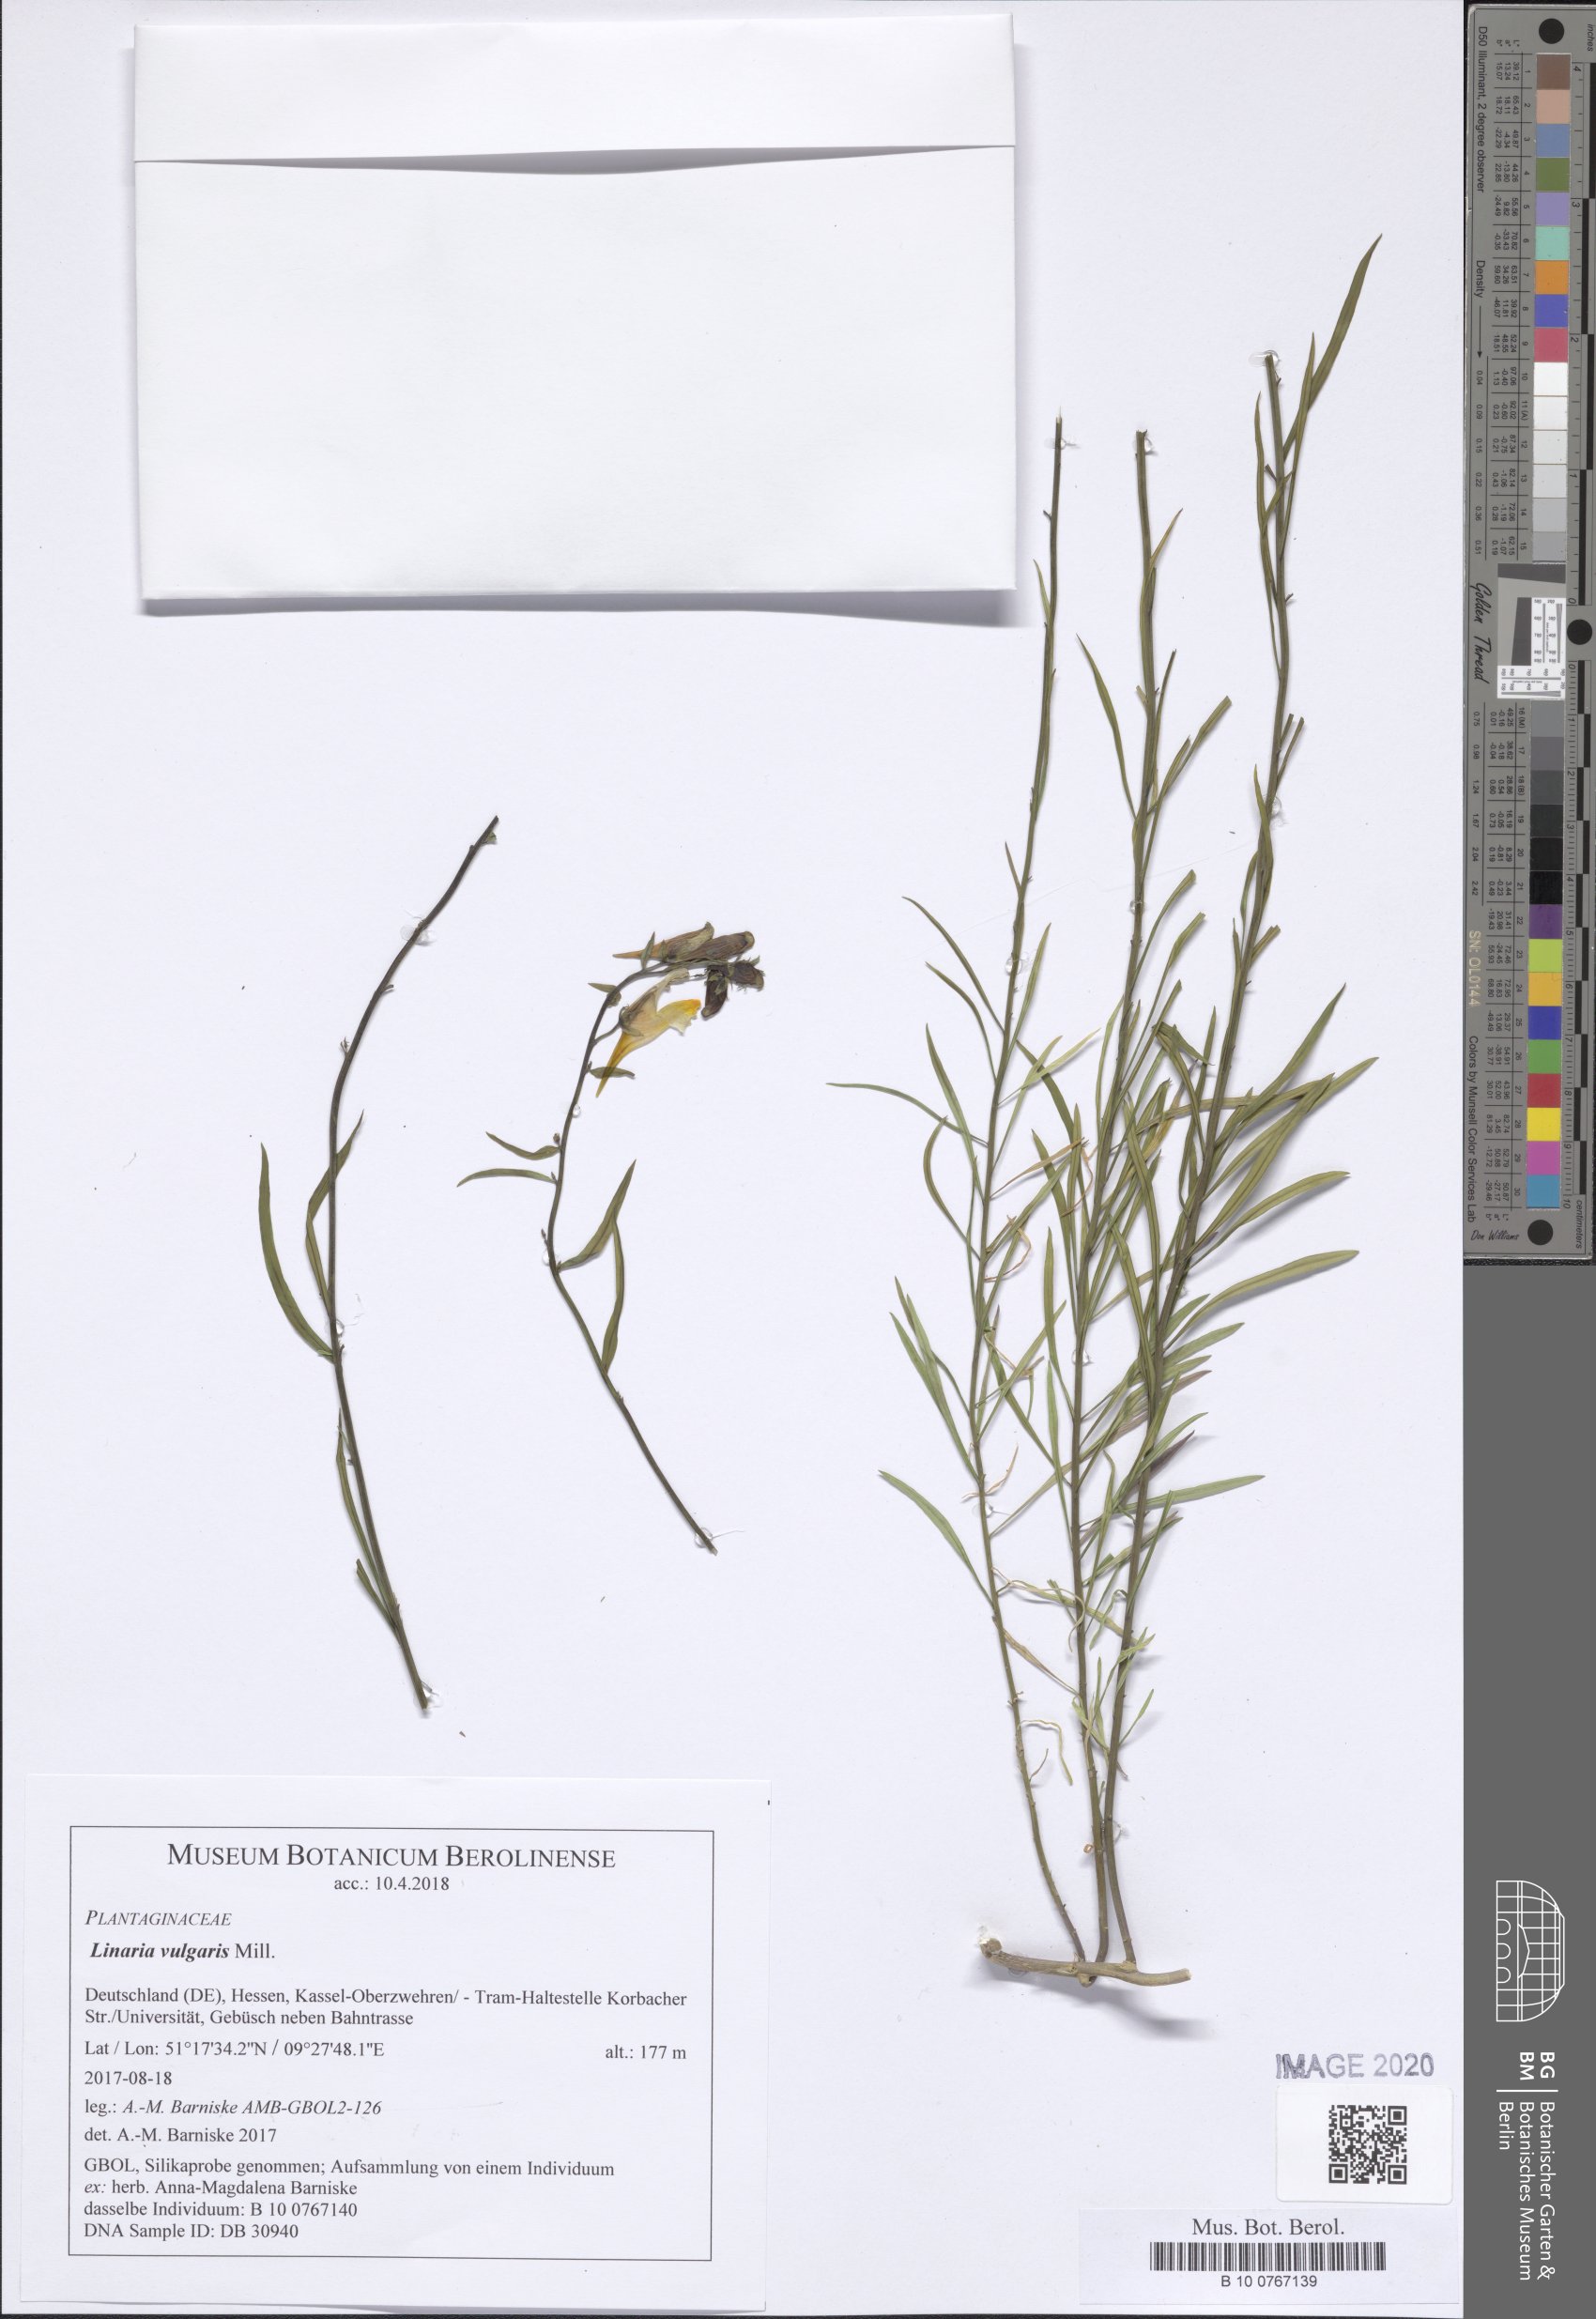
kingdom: Plantae
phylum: Tracheophyta
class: Magnoliopsida
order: Lamiales
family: Plantaginaceae
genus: Linaria
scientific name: Linaria vulgaris
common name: Butter and eggs
